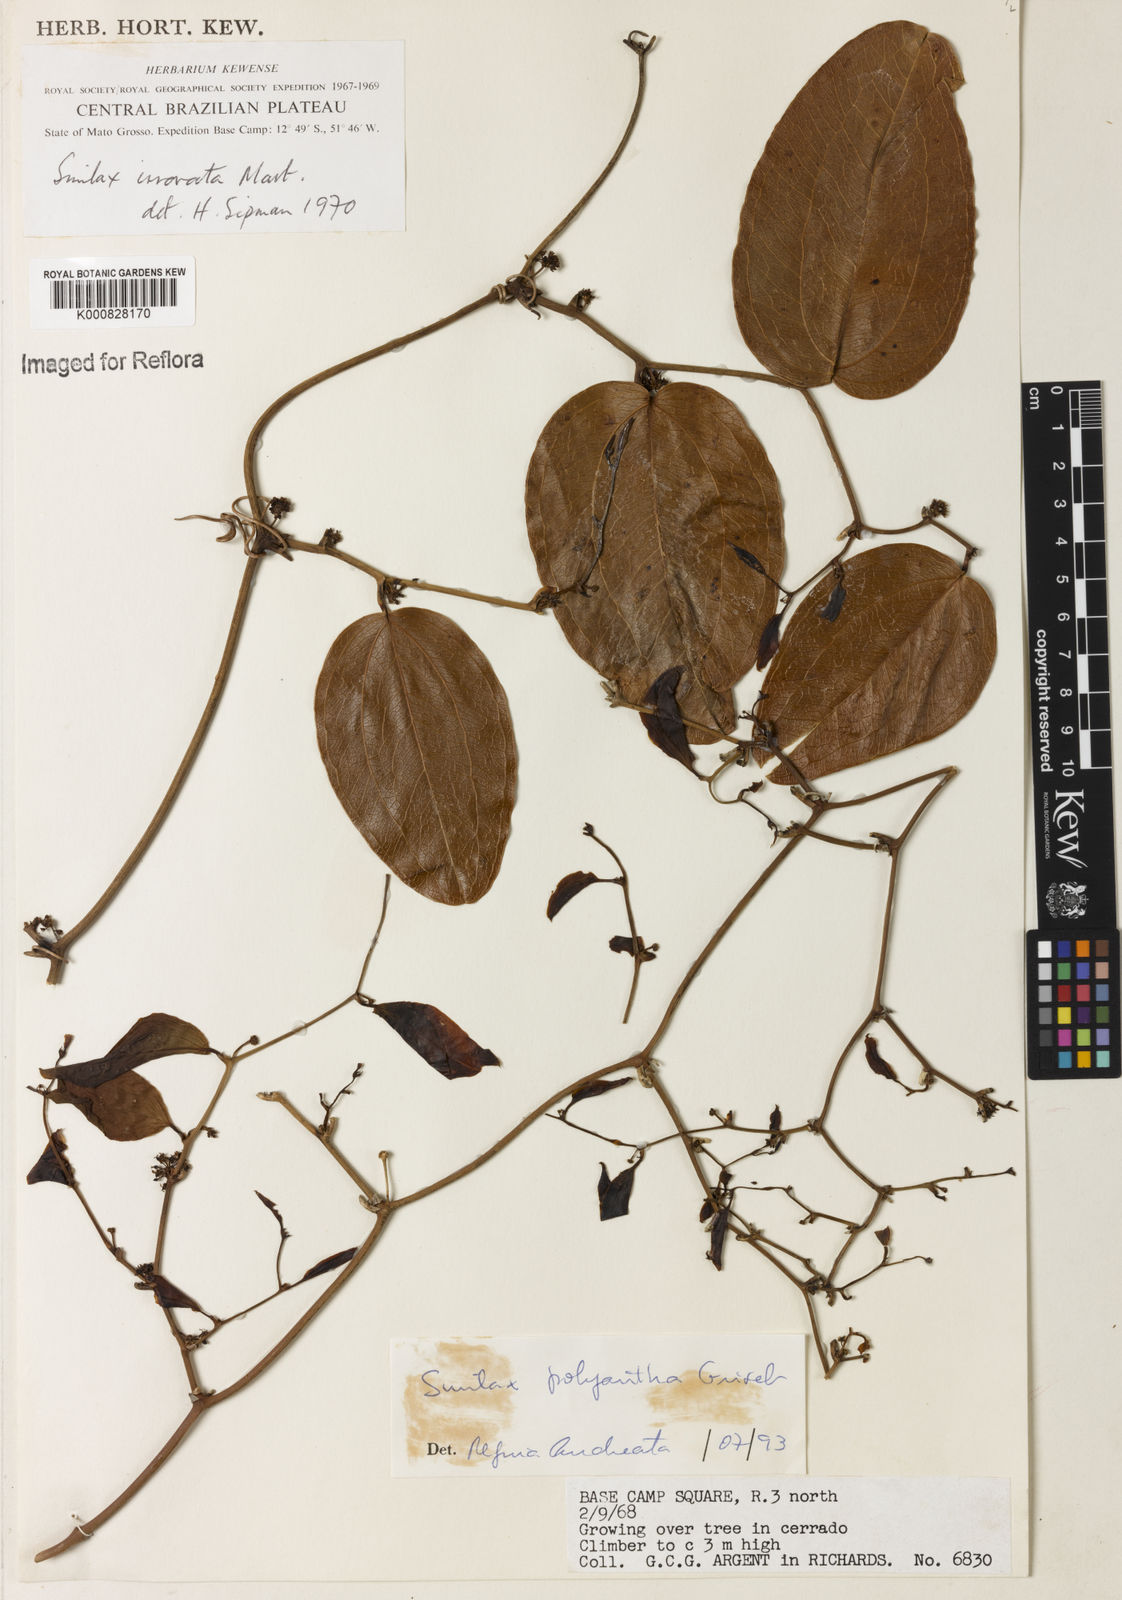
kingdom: Plantae
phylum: Tracheophyta
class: Liliopsida
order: Liliales
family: Smilacaceae
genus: Smilax
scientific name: Smilax polyantha
